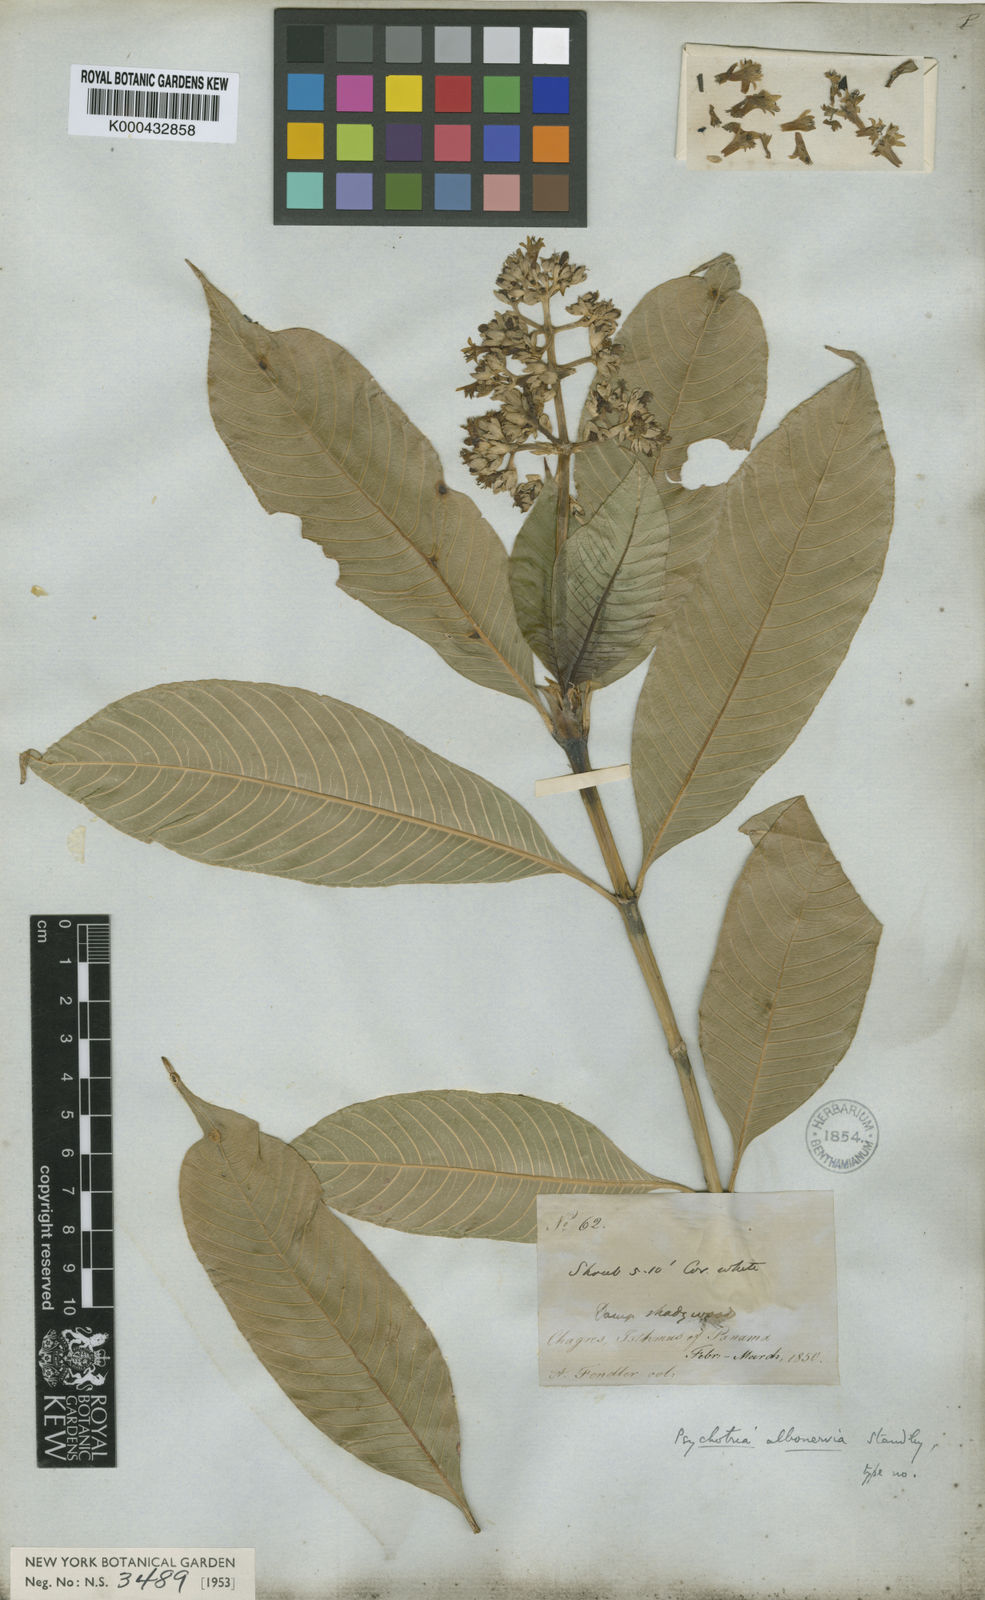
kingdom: Plantae
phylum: Tracheophyta
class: Magnoliopsida
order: Gentianales
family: Rubiaceae
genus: Palicourea
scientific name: Palicourea violacea
